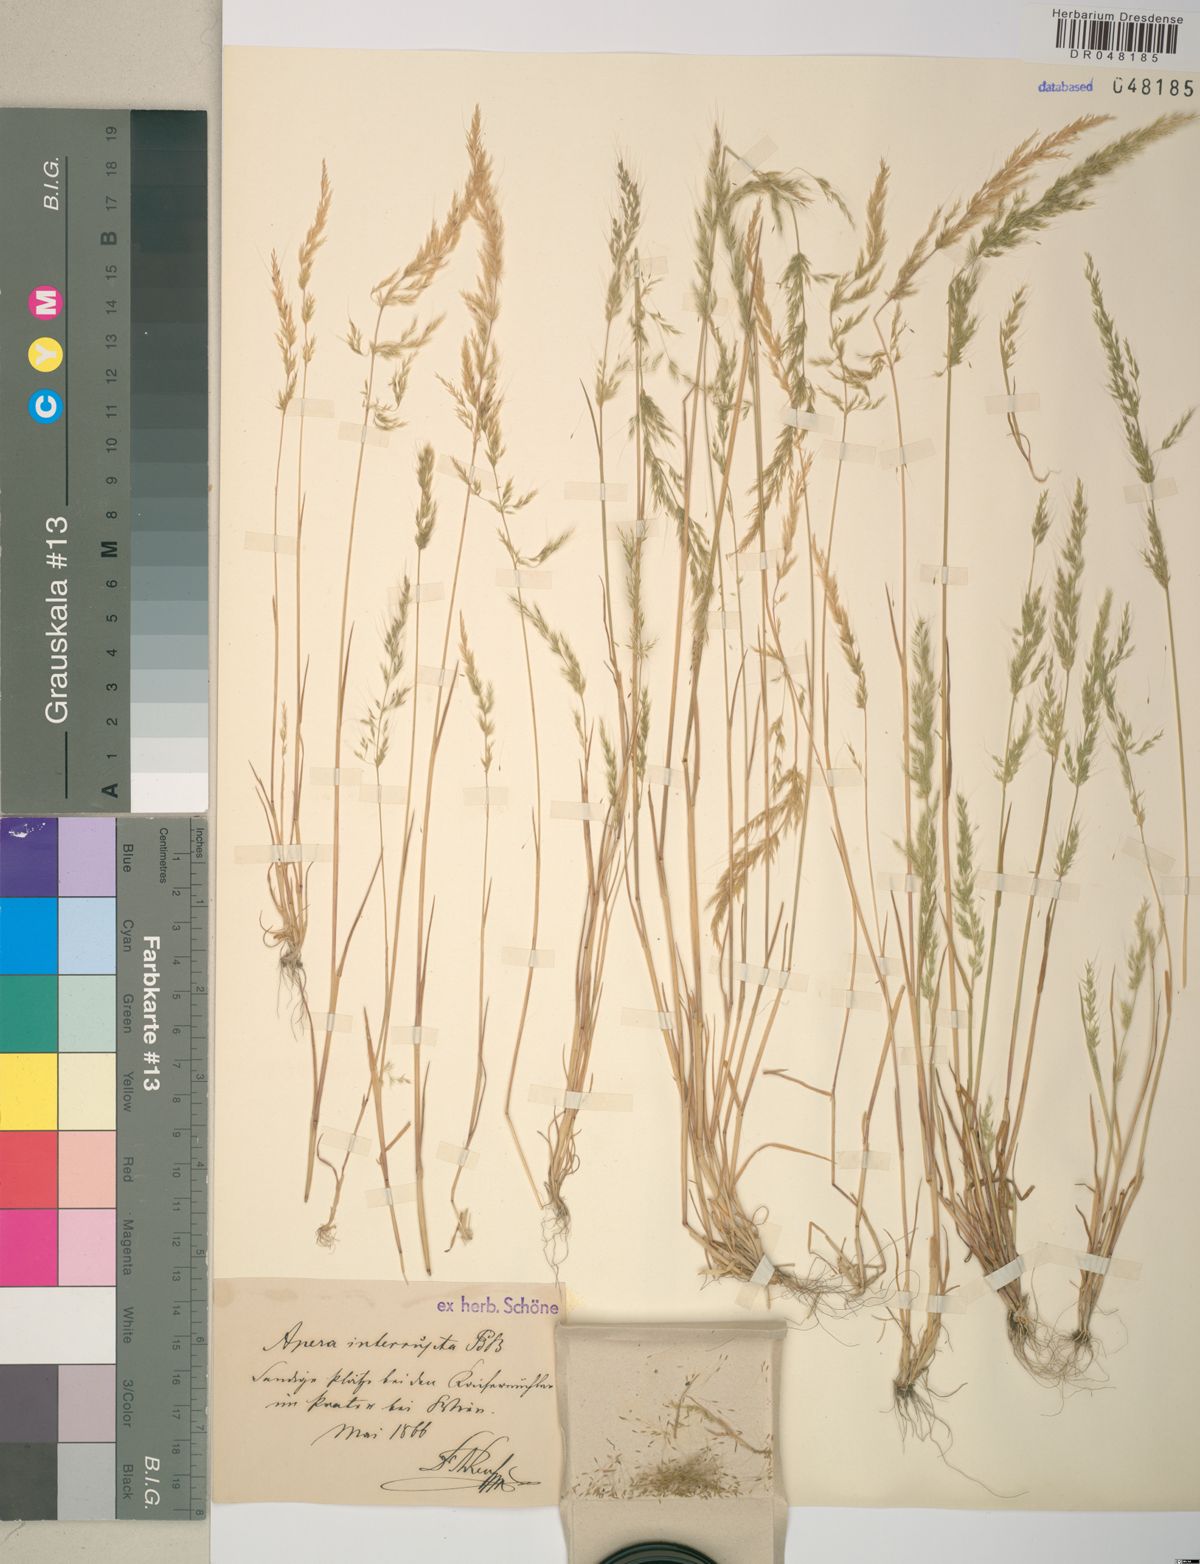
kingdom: Plantae
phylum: Tracheophyta
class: Liliopsida
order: Poales
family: Poaceae
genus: Apera
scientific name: Apera interrupta
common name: Dense silky-bent
